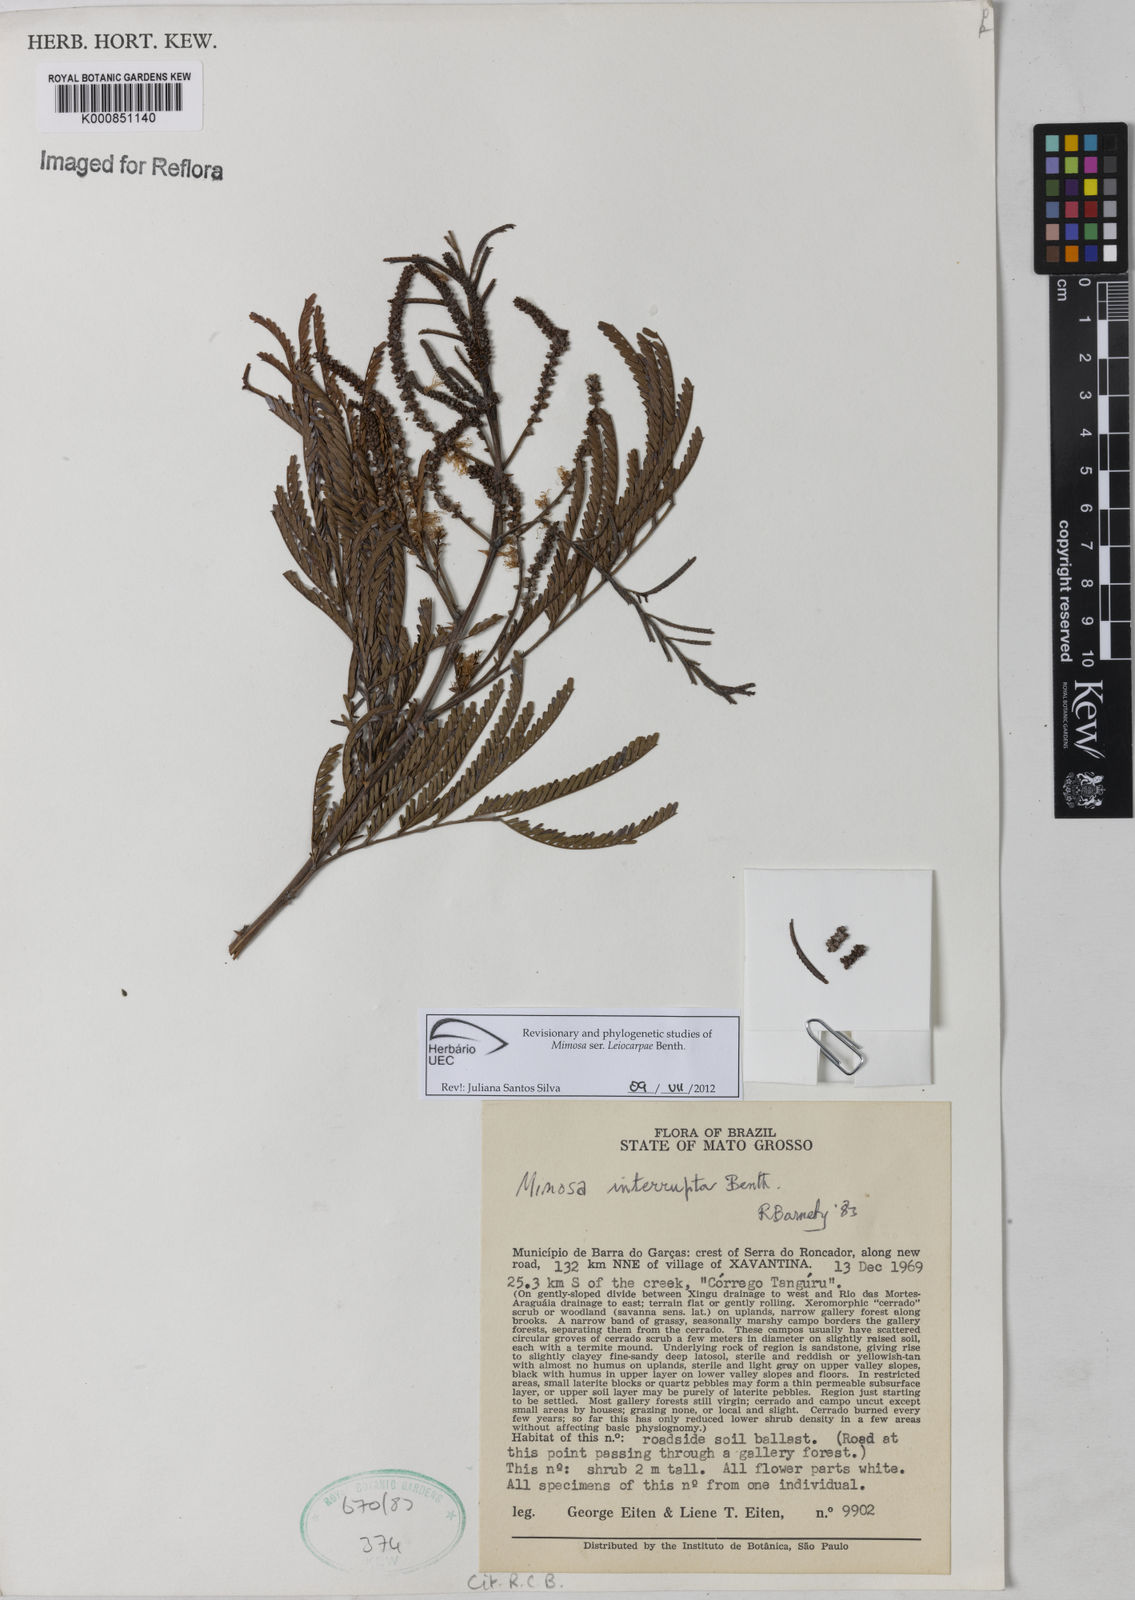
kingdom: Plantae
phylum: Tracheophyta
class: Magnoliopsida
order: Fabales
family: Fabaceae
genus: Mimosa
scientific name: Mimosa interrupta
